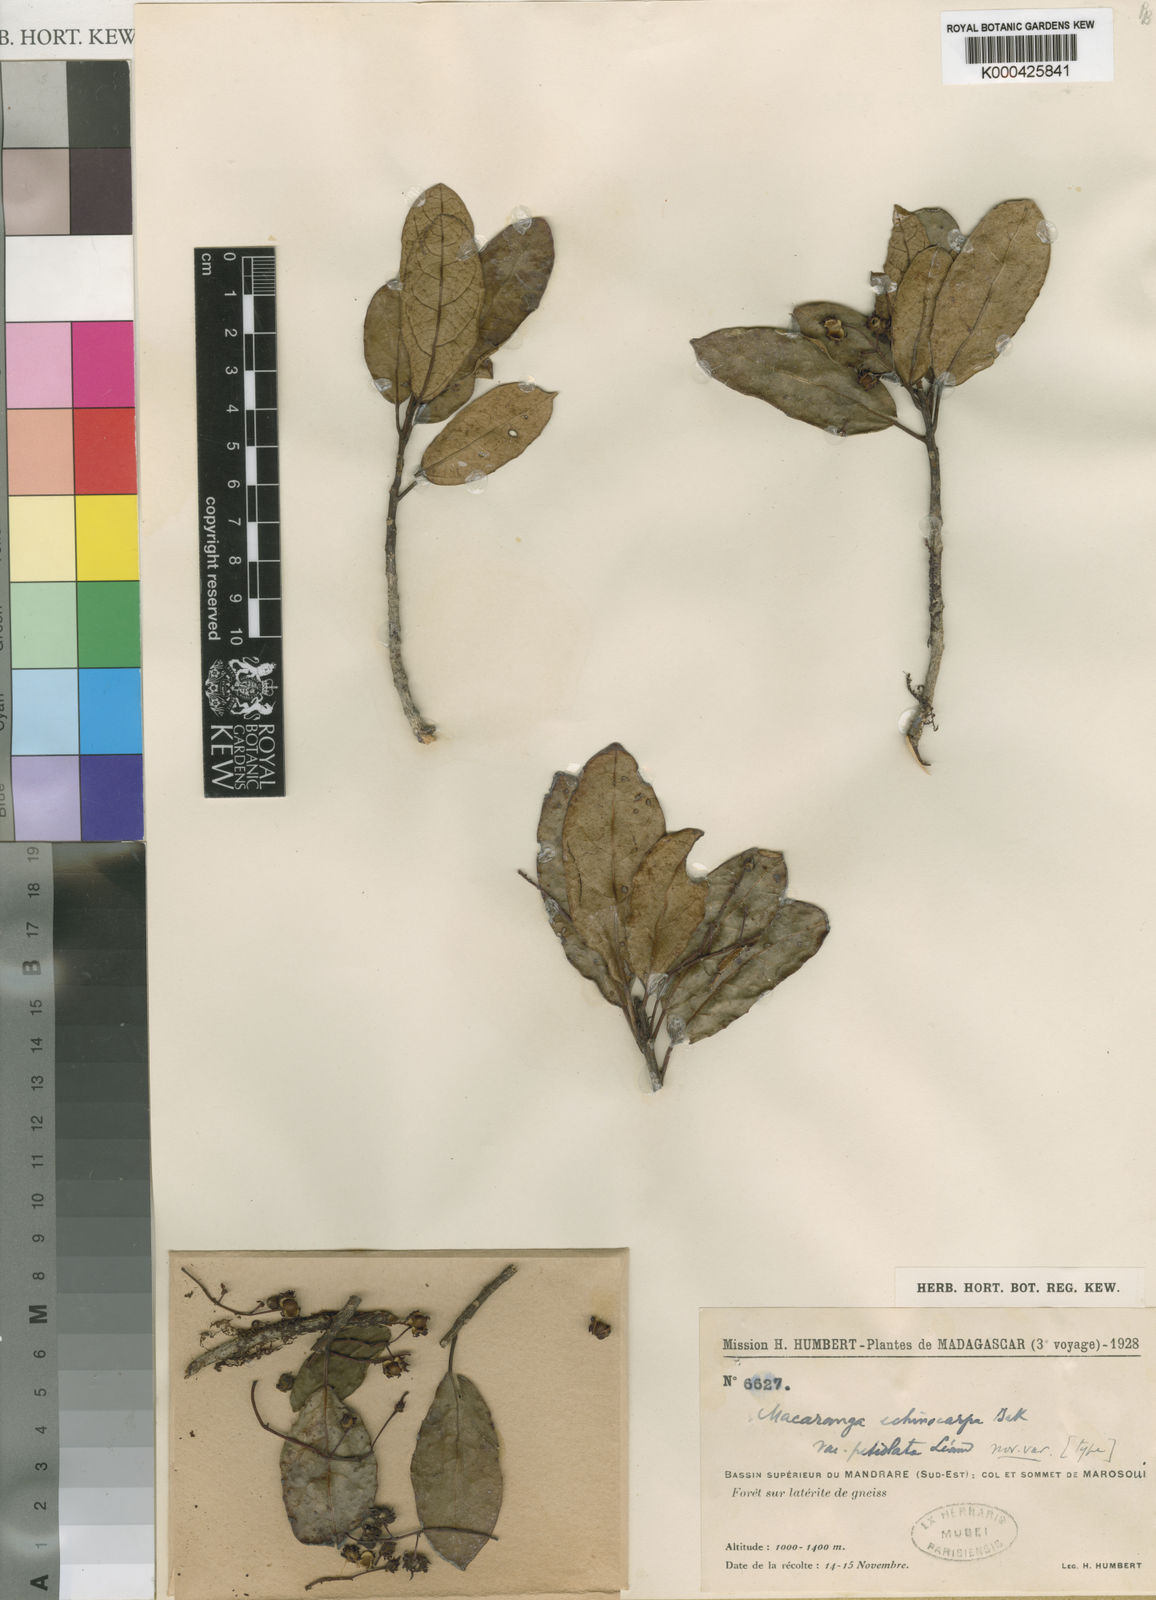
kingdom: Plantae
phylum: Tracheophyta
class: Magnoliopsida
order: Malpighiales
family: Euphorbiaceae
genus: Macaranga
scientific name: Macaranga echinocarpa
